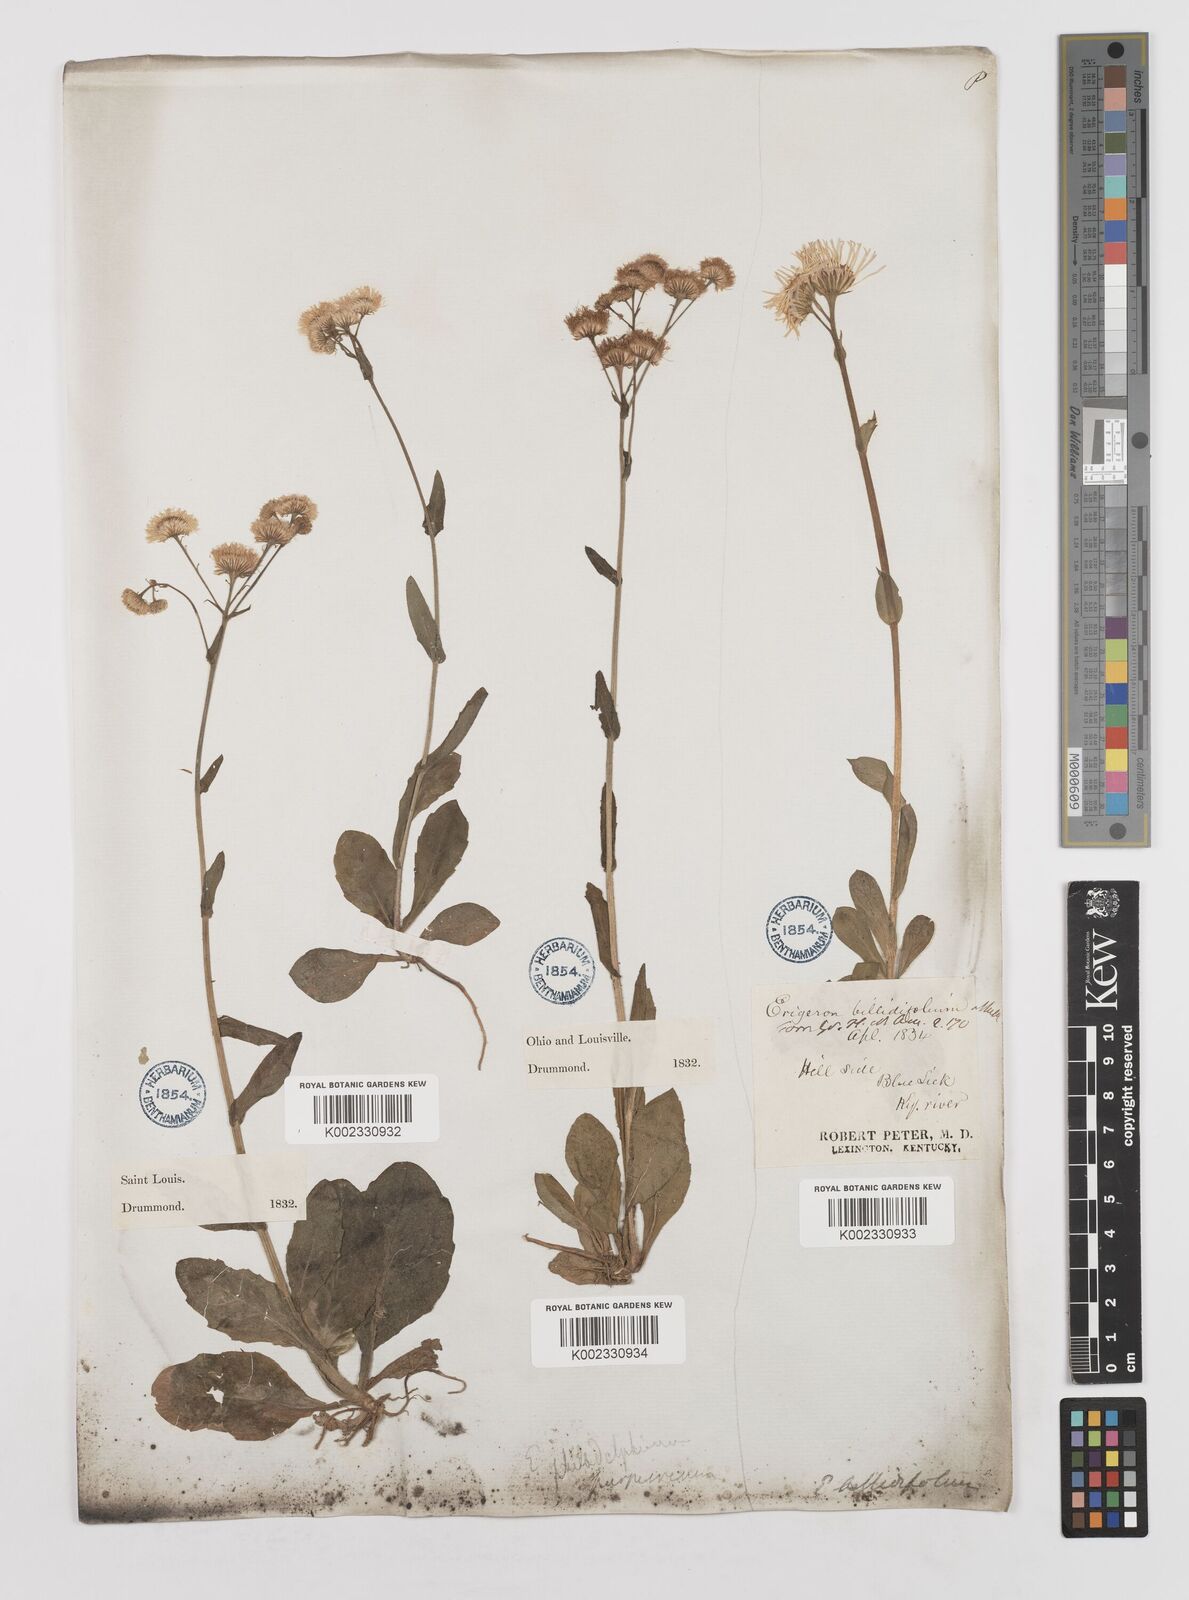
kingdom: Plantae
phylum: Tracheophyta
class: Magnoliopsida
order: Asterales
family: Asteraceae
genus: Erigeron
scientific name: Erigeron philadelphicus
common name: Robin's-plantain
